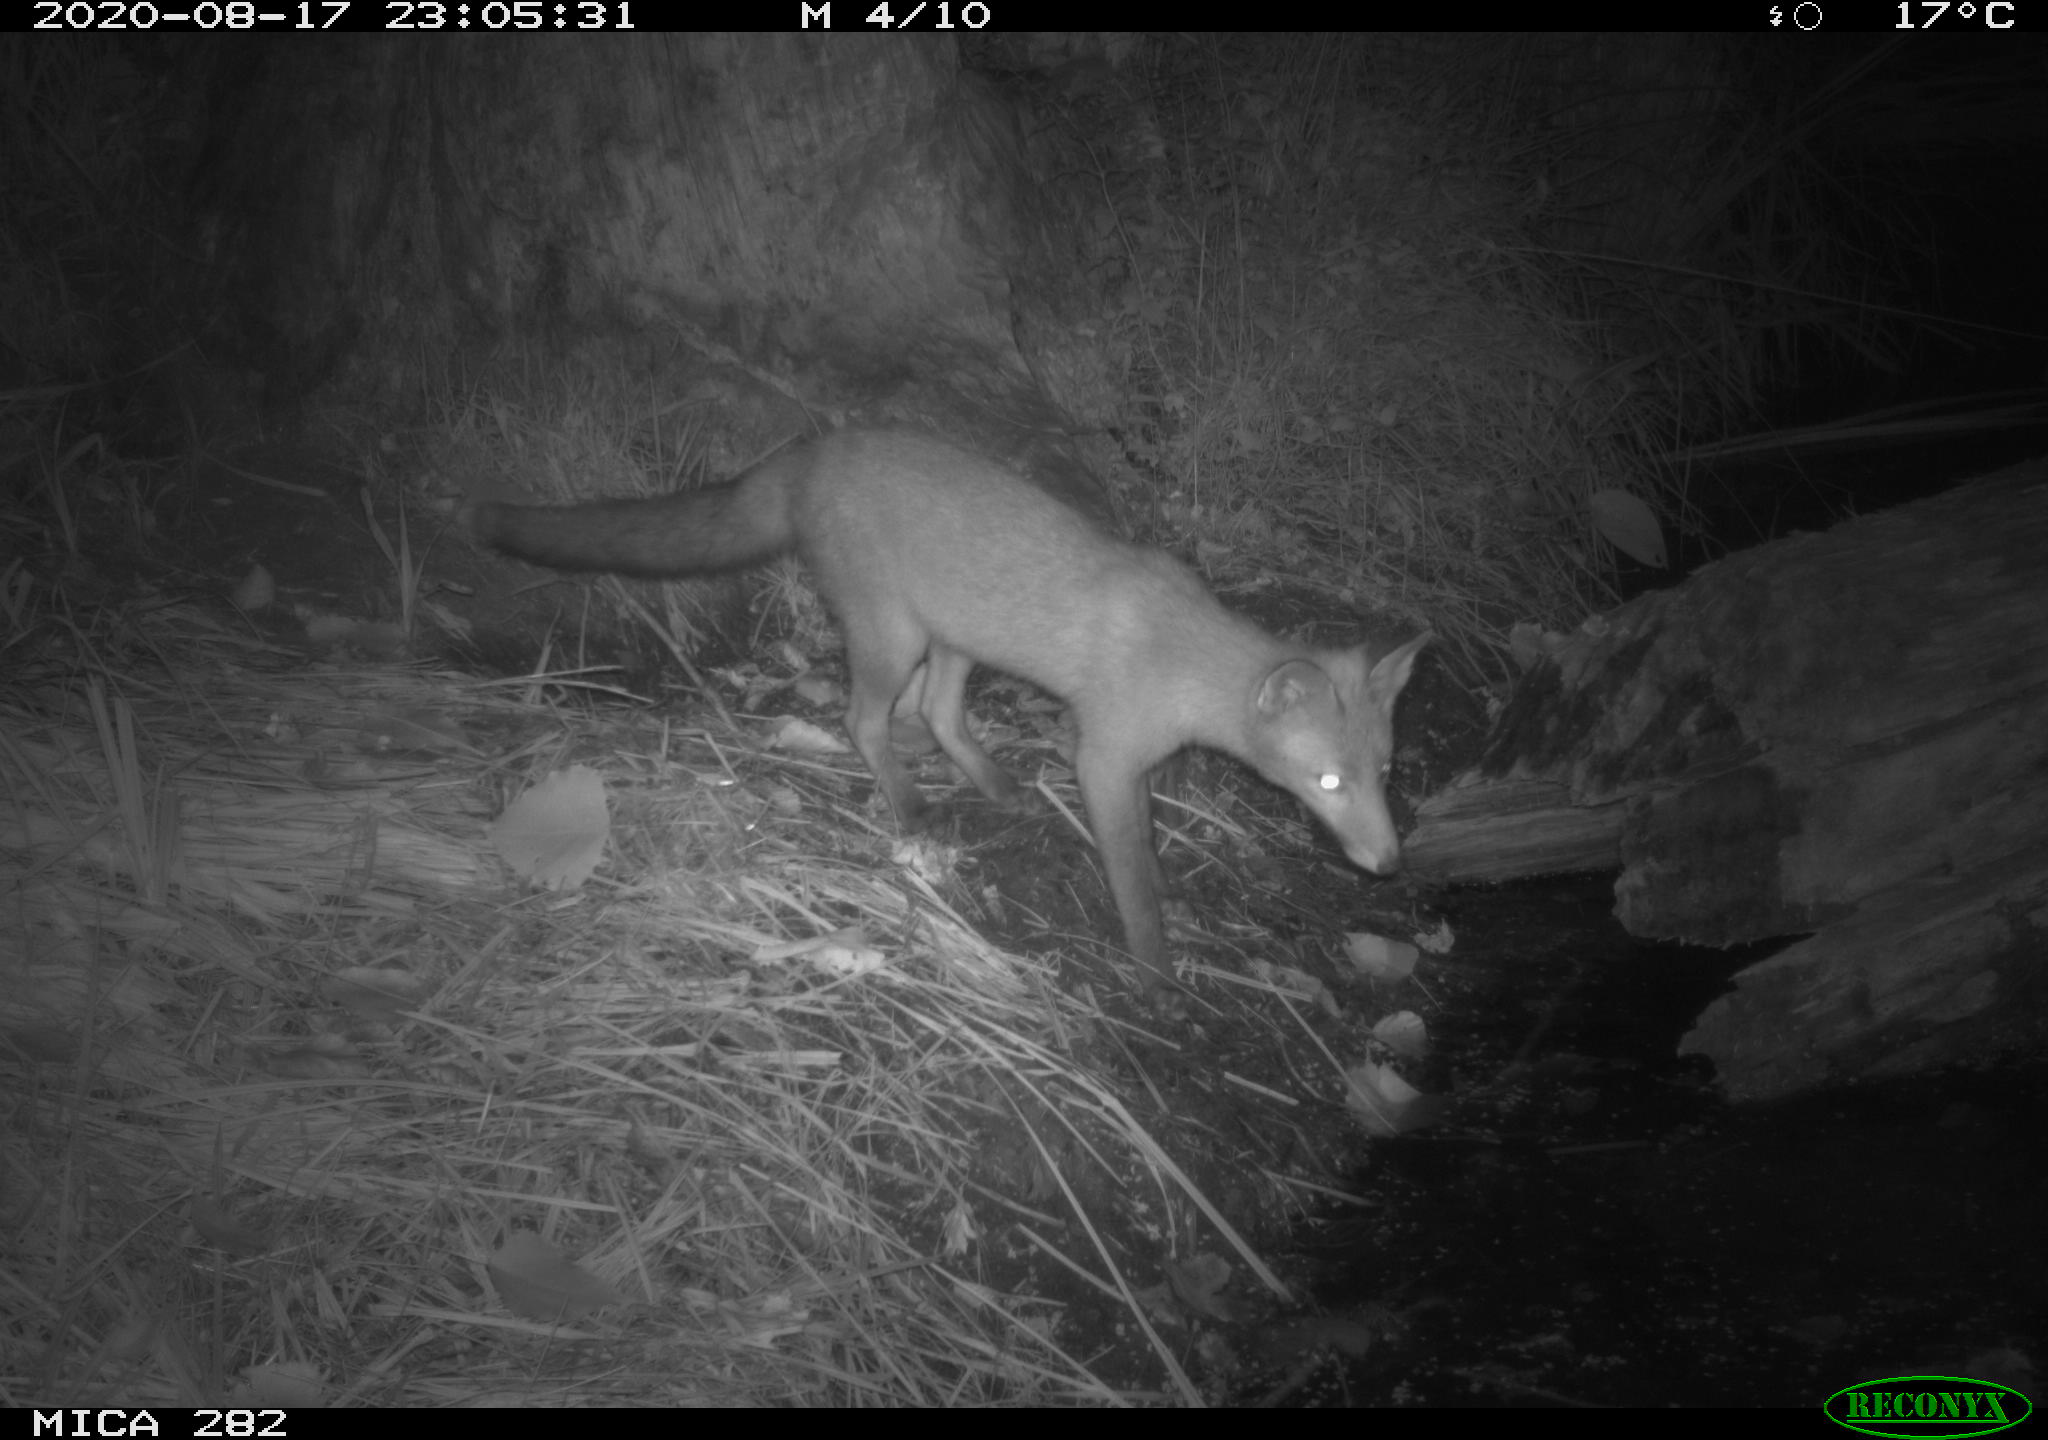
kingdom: Animalia
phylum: Chordata
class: Mammalia
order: Carnivora
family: Canidae
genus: Vulpes
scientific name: Vulpes vulpes
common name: Red fox
